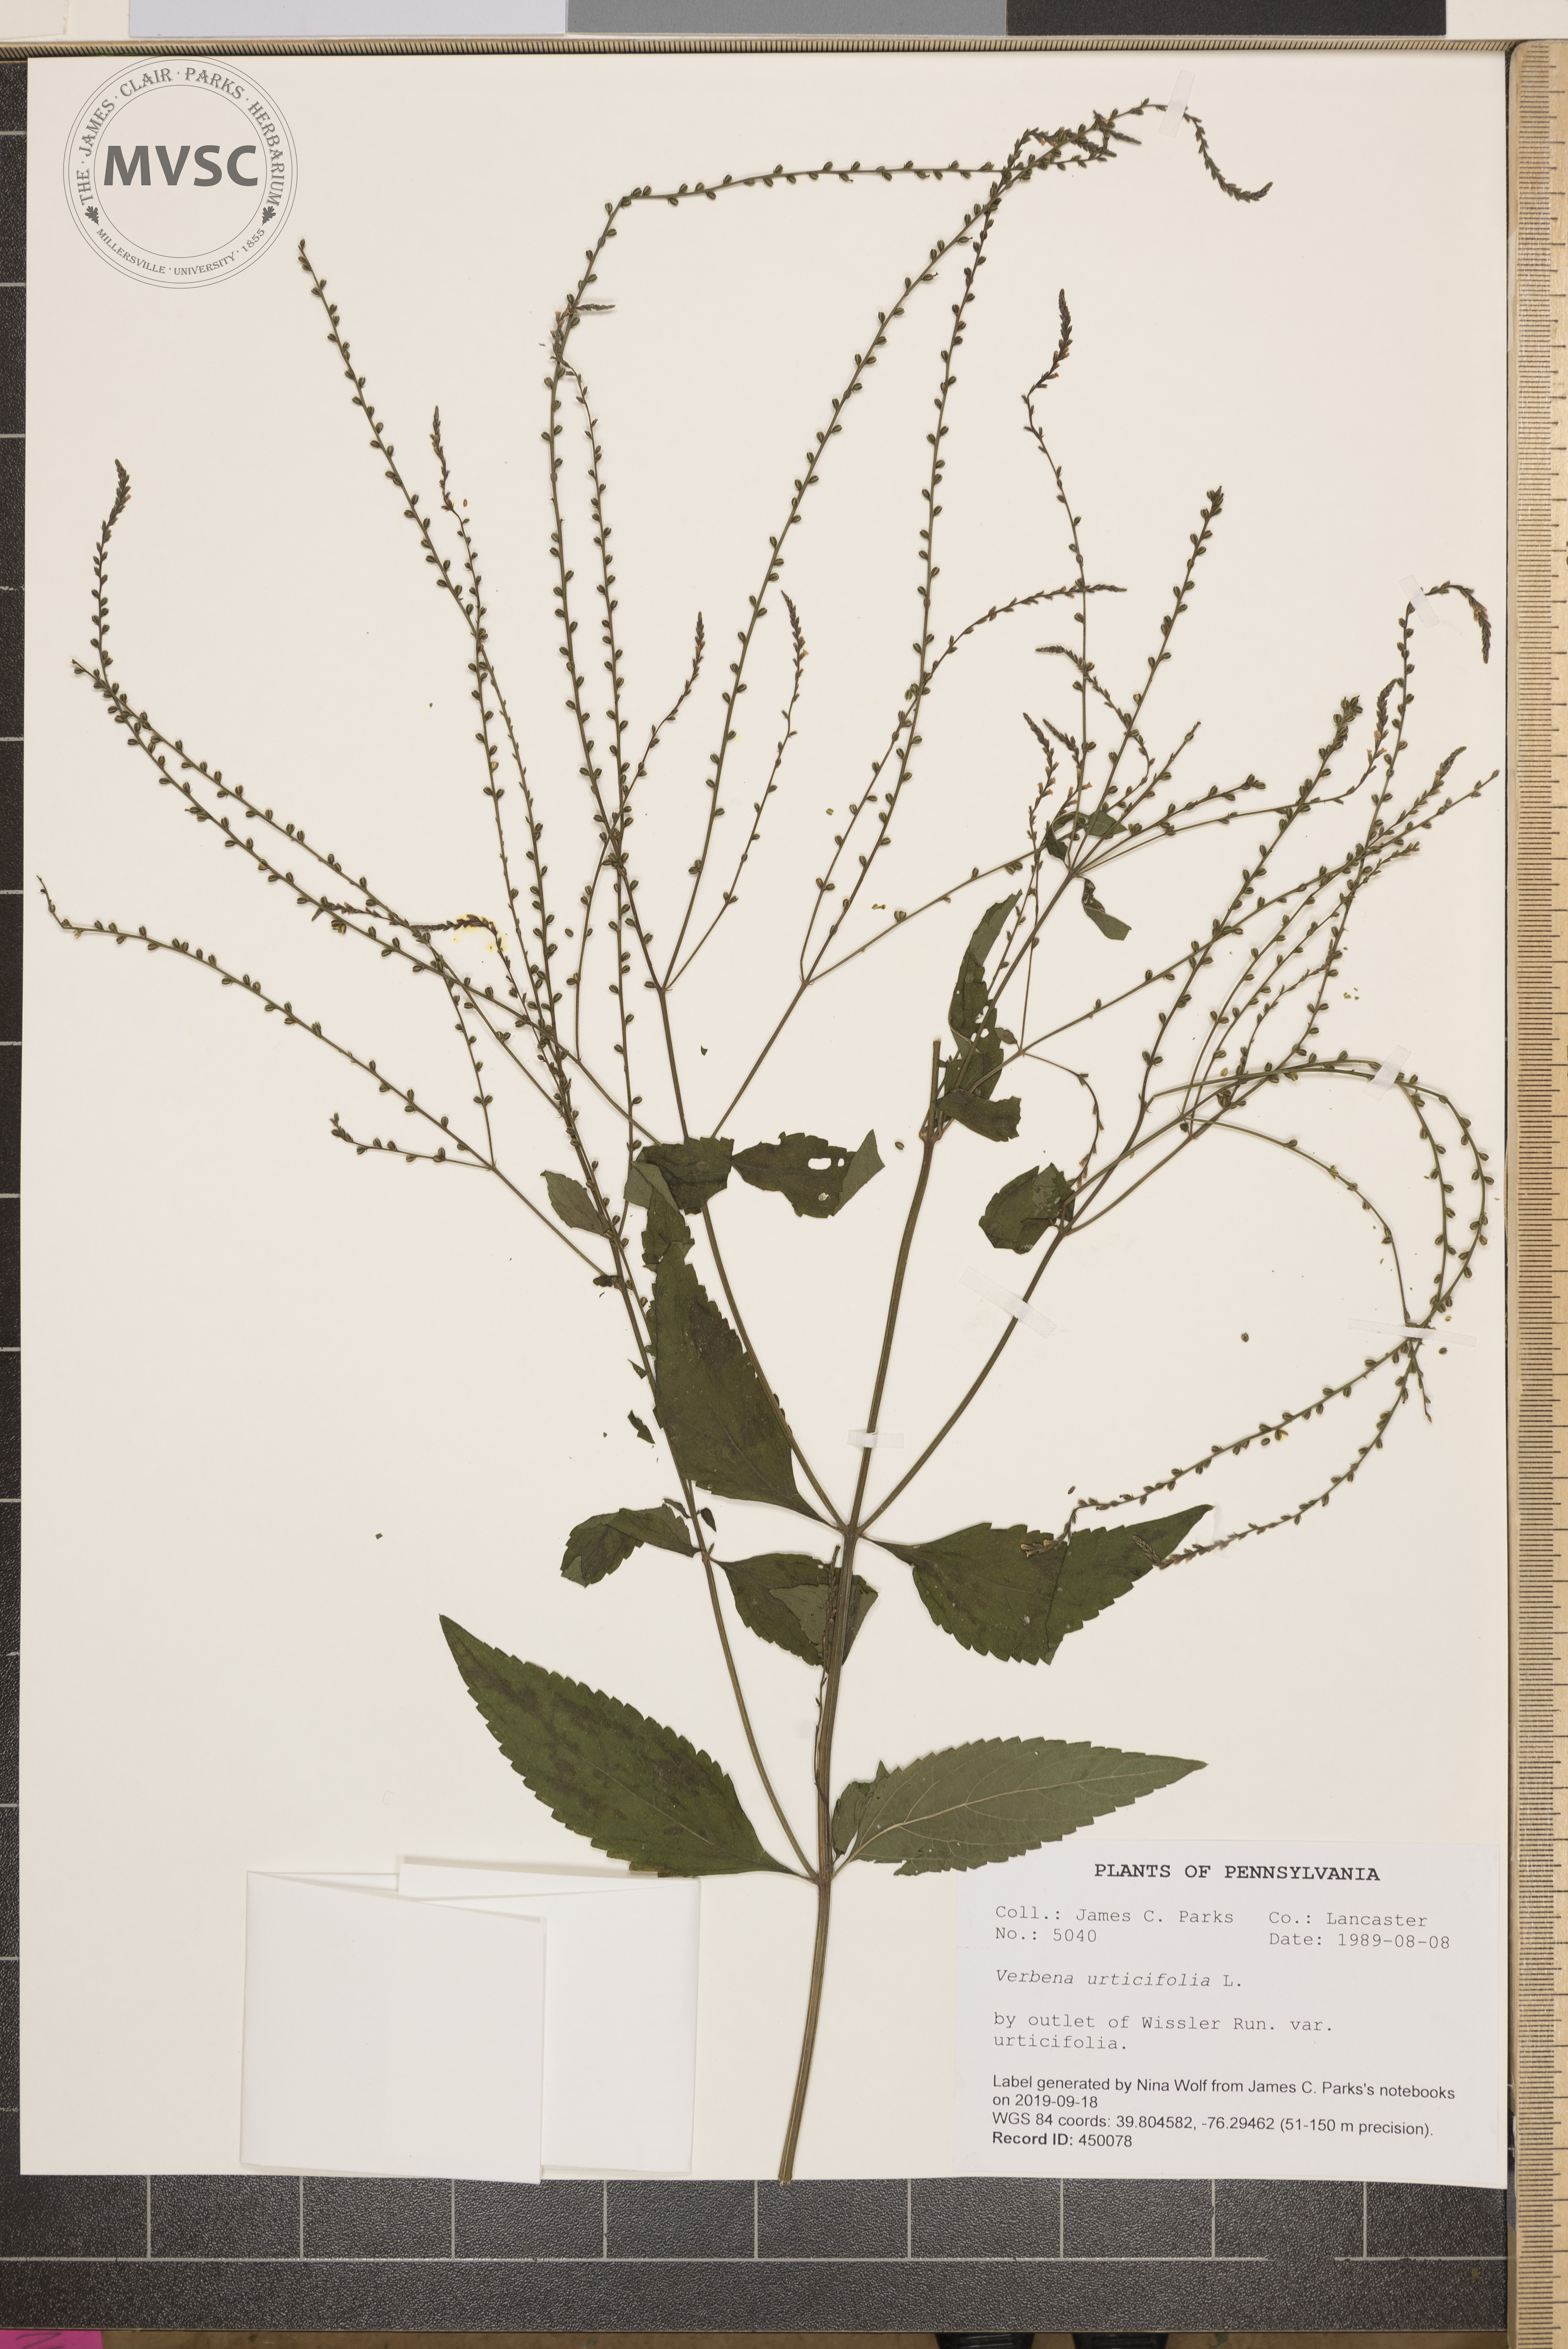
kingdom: Plantae
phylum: Tracheophyta
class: Magnoliopsida
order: Lamiales
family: Verbenaceae
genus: Verbena
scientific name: Verbena urticifolia
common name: Nettle-leaved vervain
